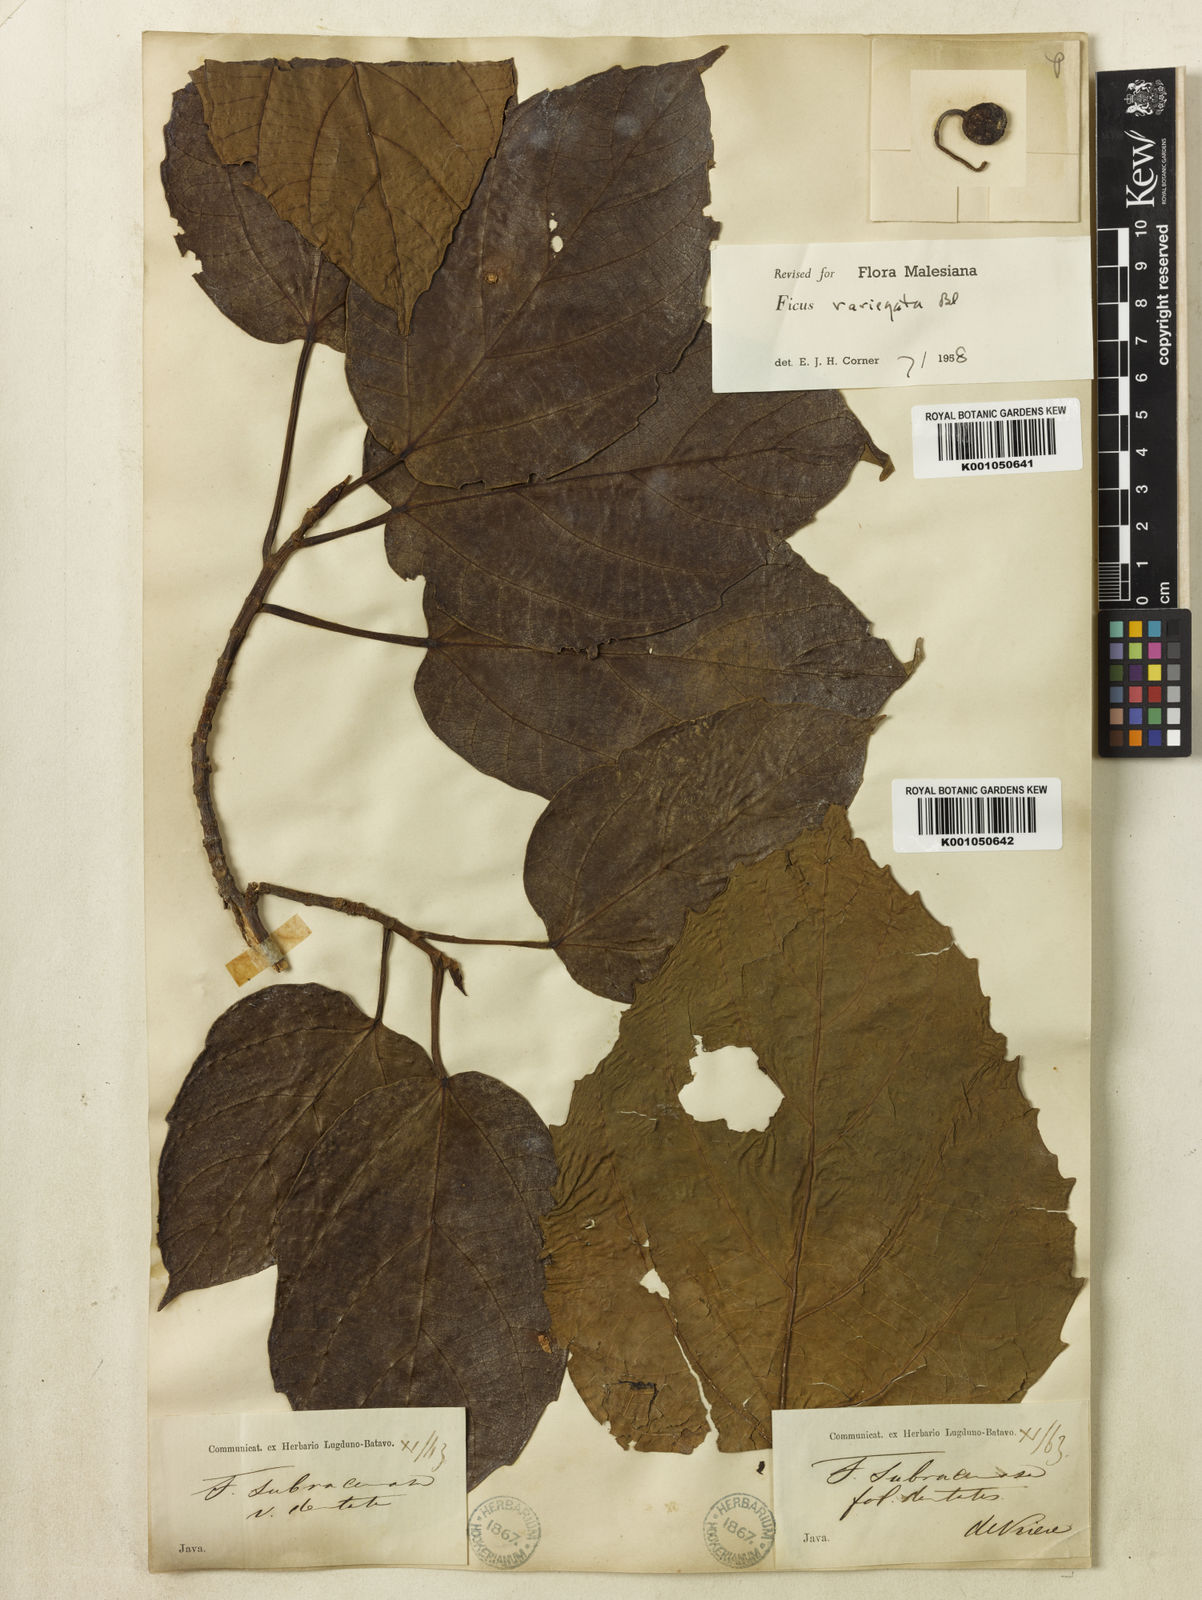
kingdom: Plantae
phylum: Tracheophyta
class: Magnoliopsida
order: Rosales
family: Moraceae
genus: Ficus
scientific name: Ficus variegata
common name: Variegated fig
